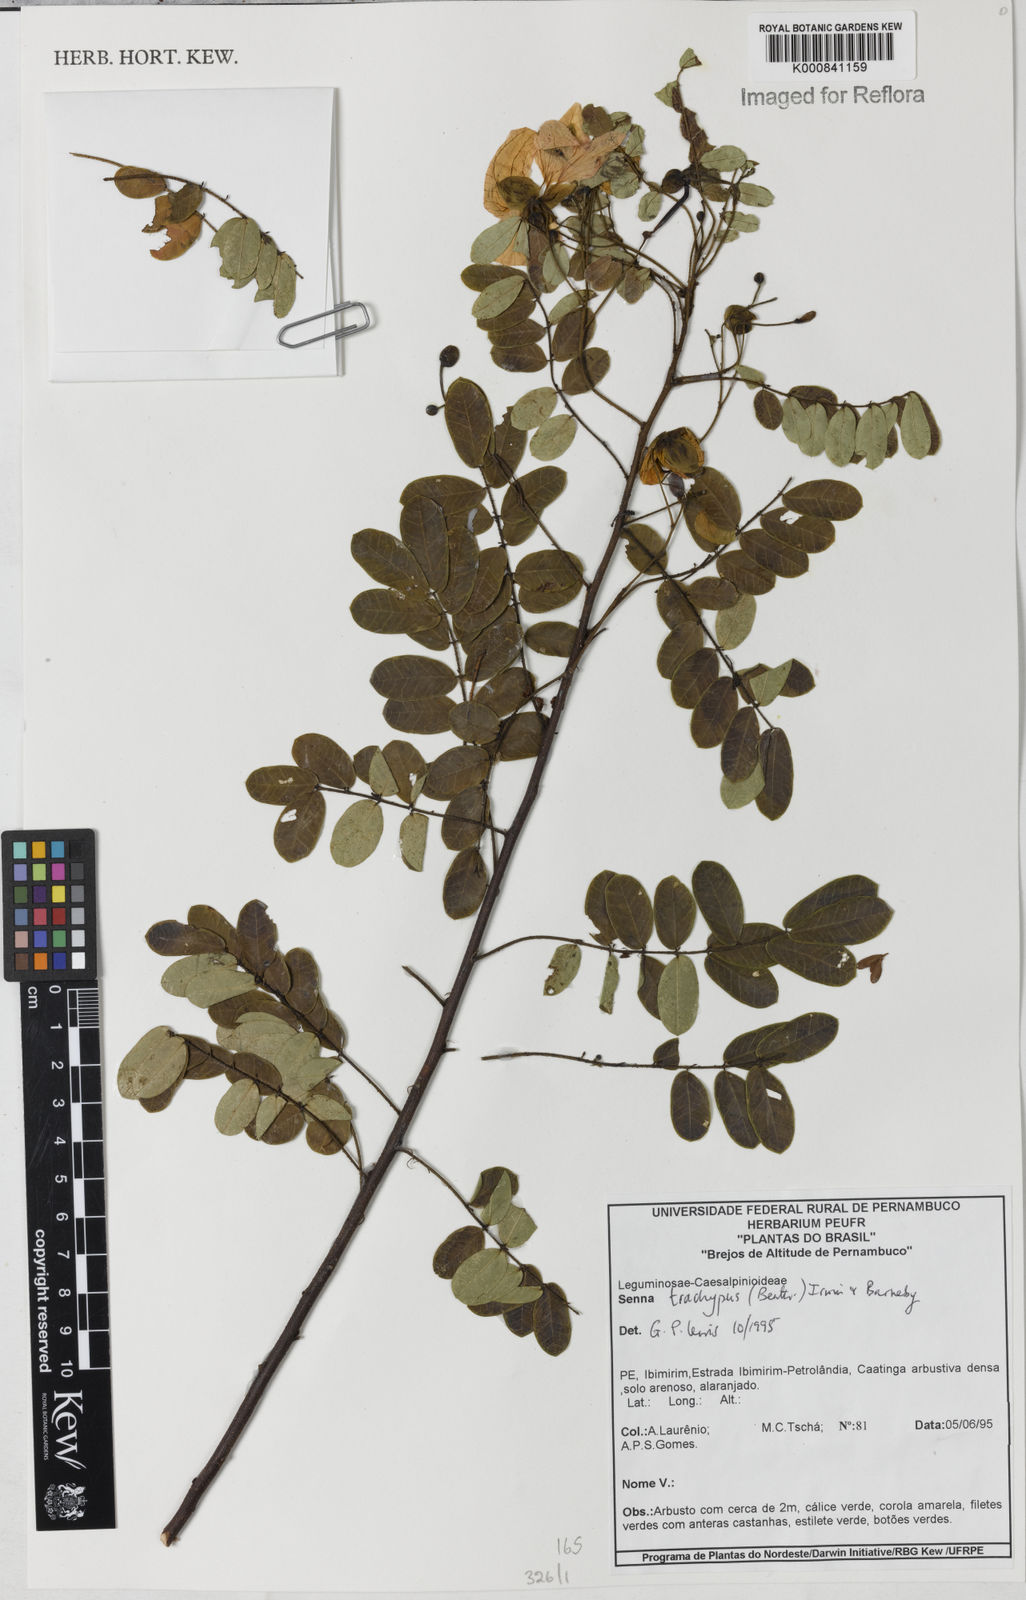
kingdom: Plantae
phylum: Tracheophyta
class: Magnoliopsida
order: Fabales
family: Fabaceae
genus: Senna
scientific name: Senna trachypus
